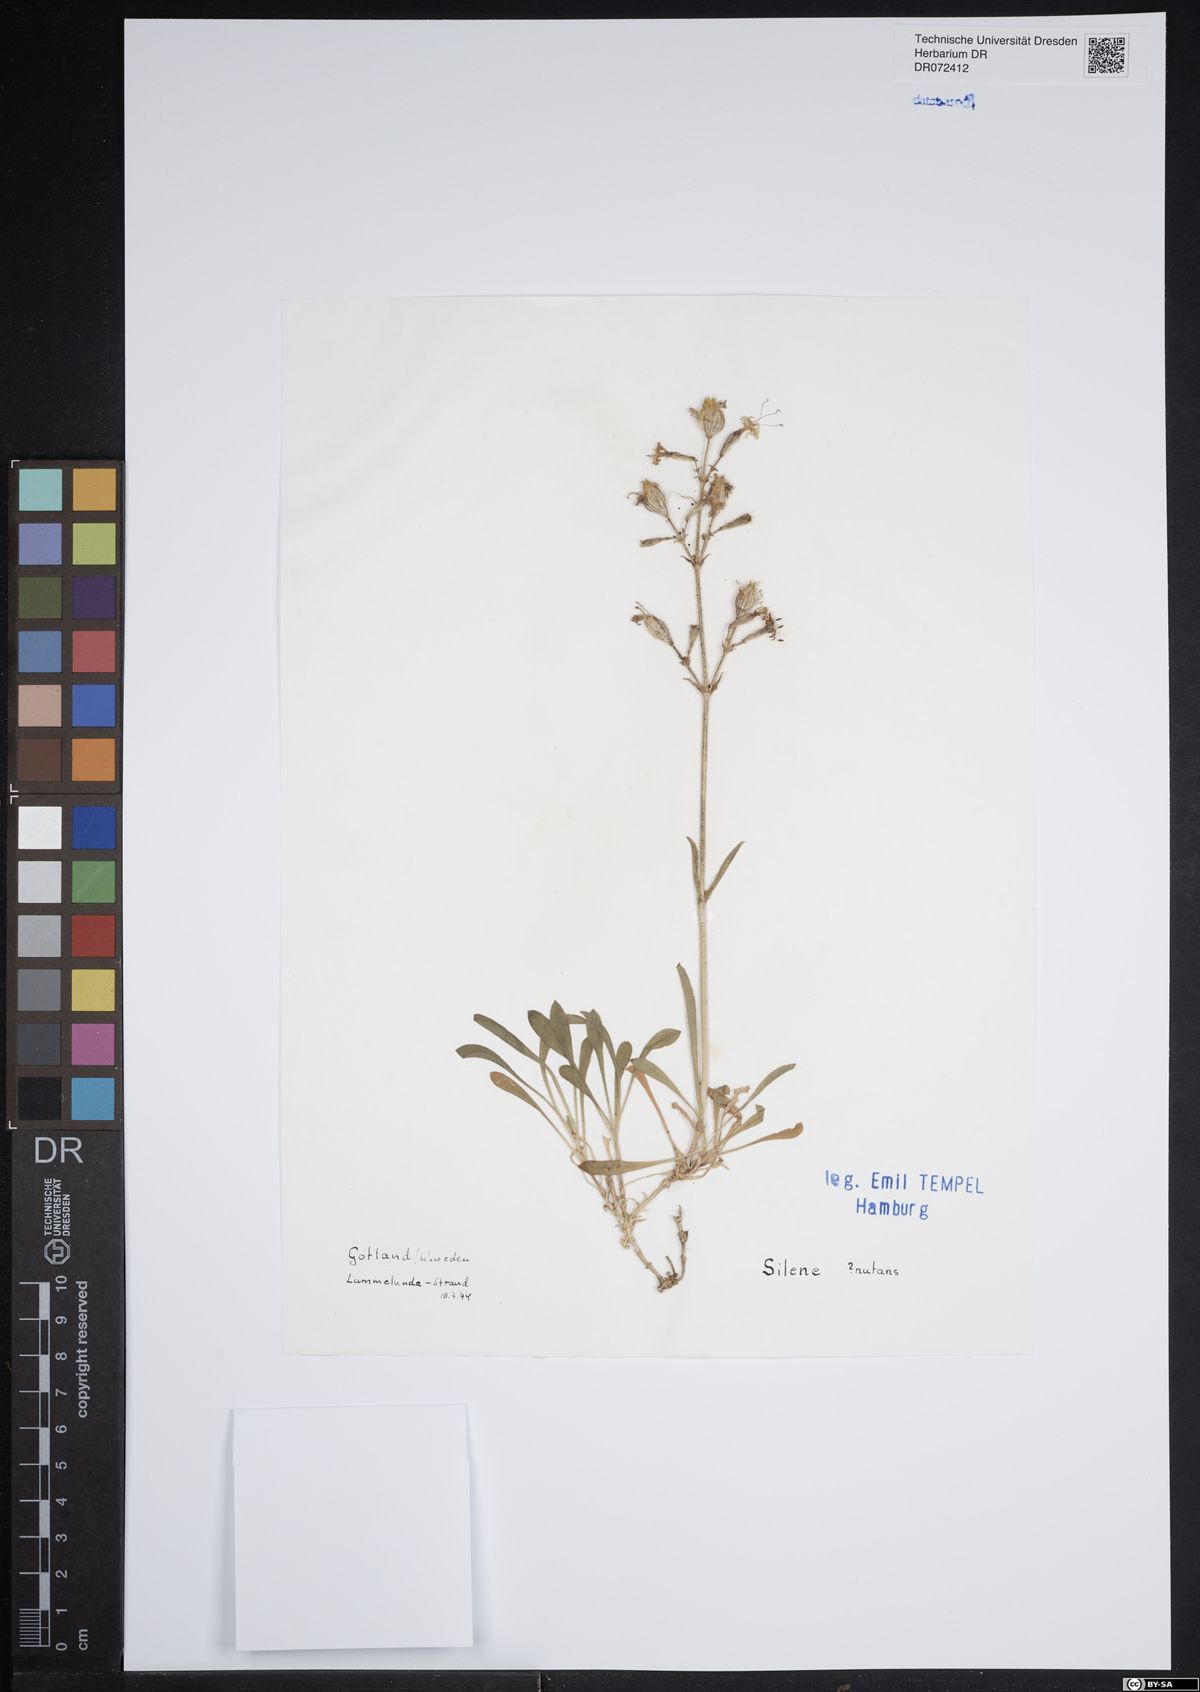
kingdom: Plantae
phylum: Tracheophyta
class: Magnoliopsida
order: Caryophyllales
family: Caryophyllaceae
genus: Silene
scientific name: Silene nutans
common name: Nottingham catchfly
